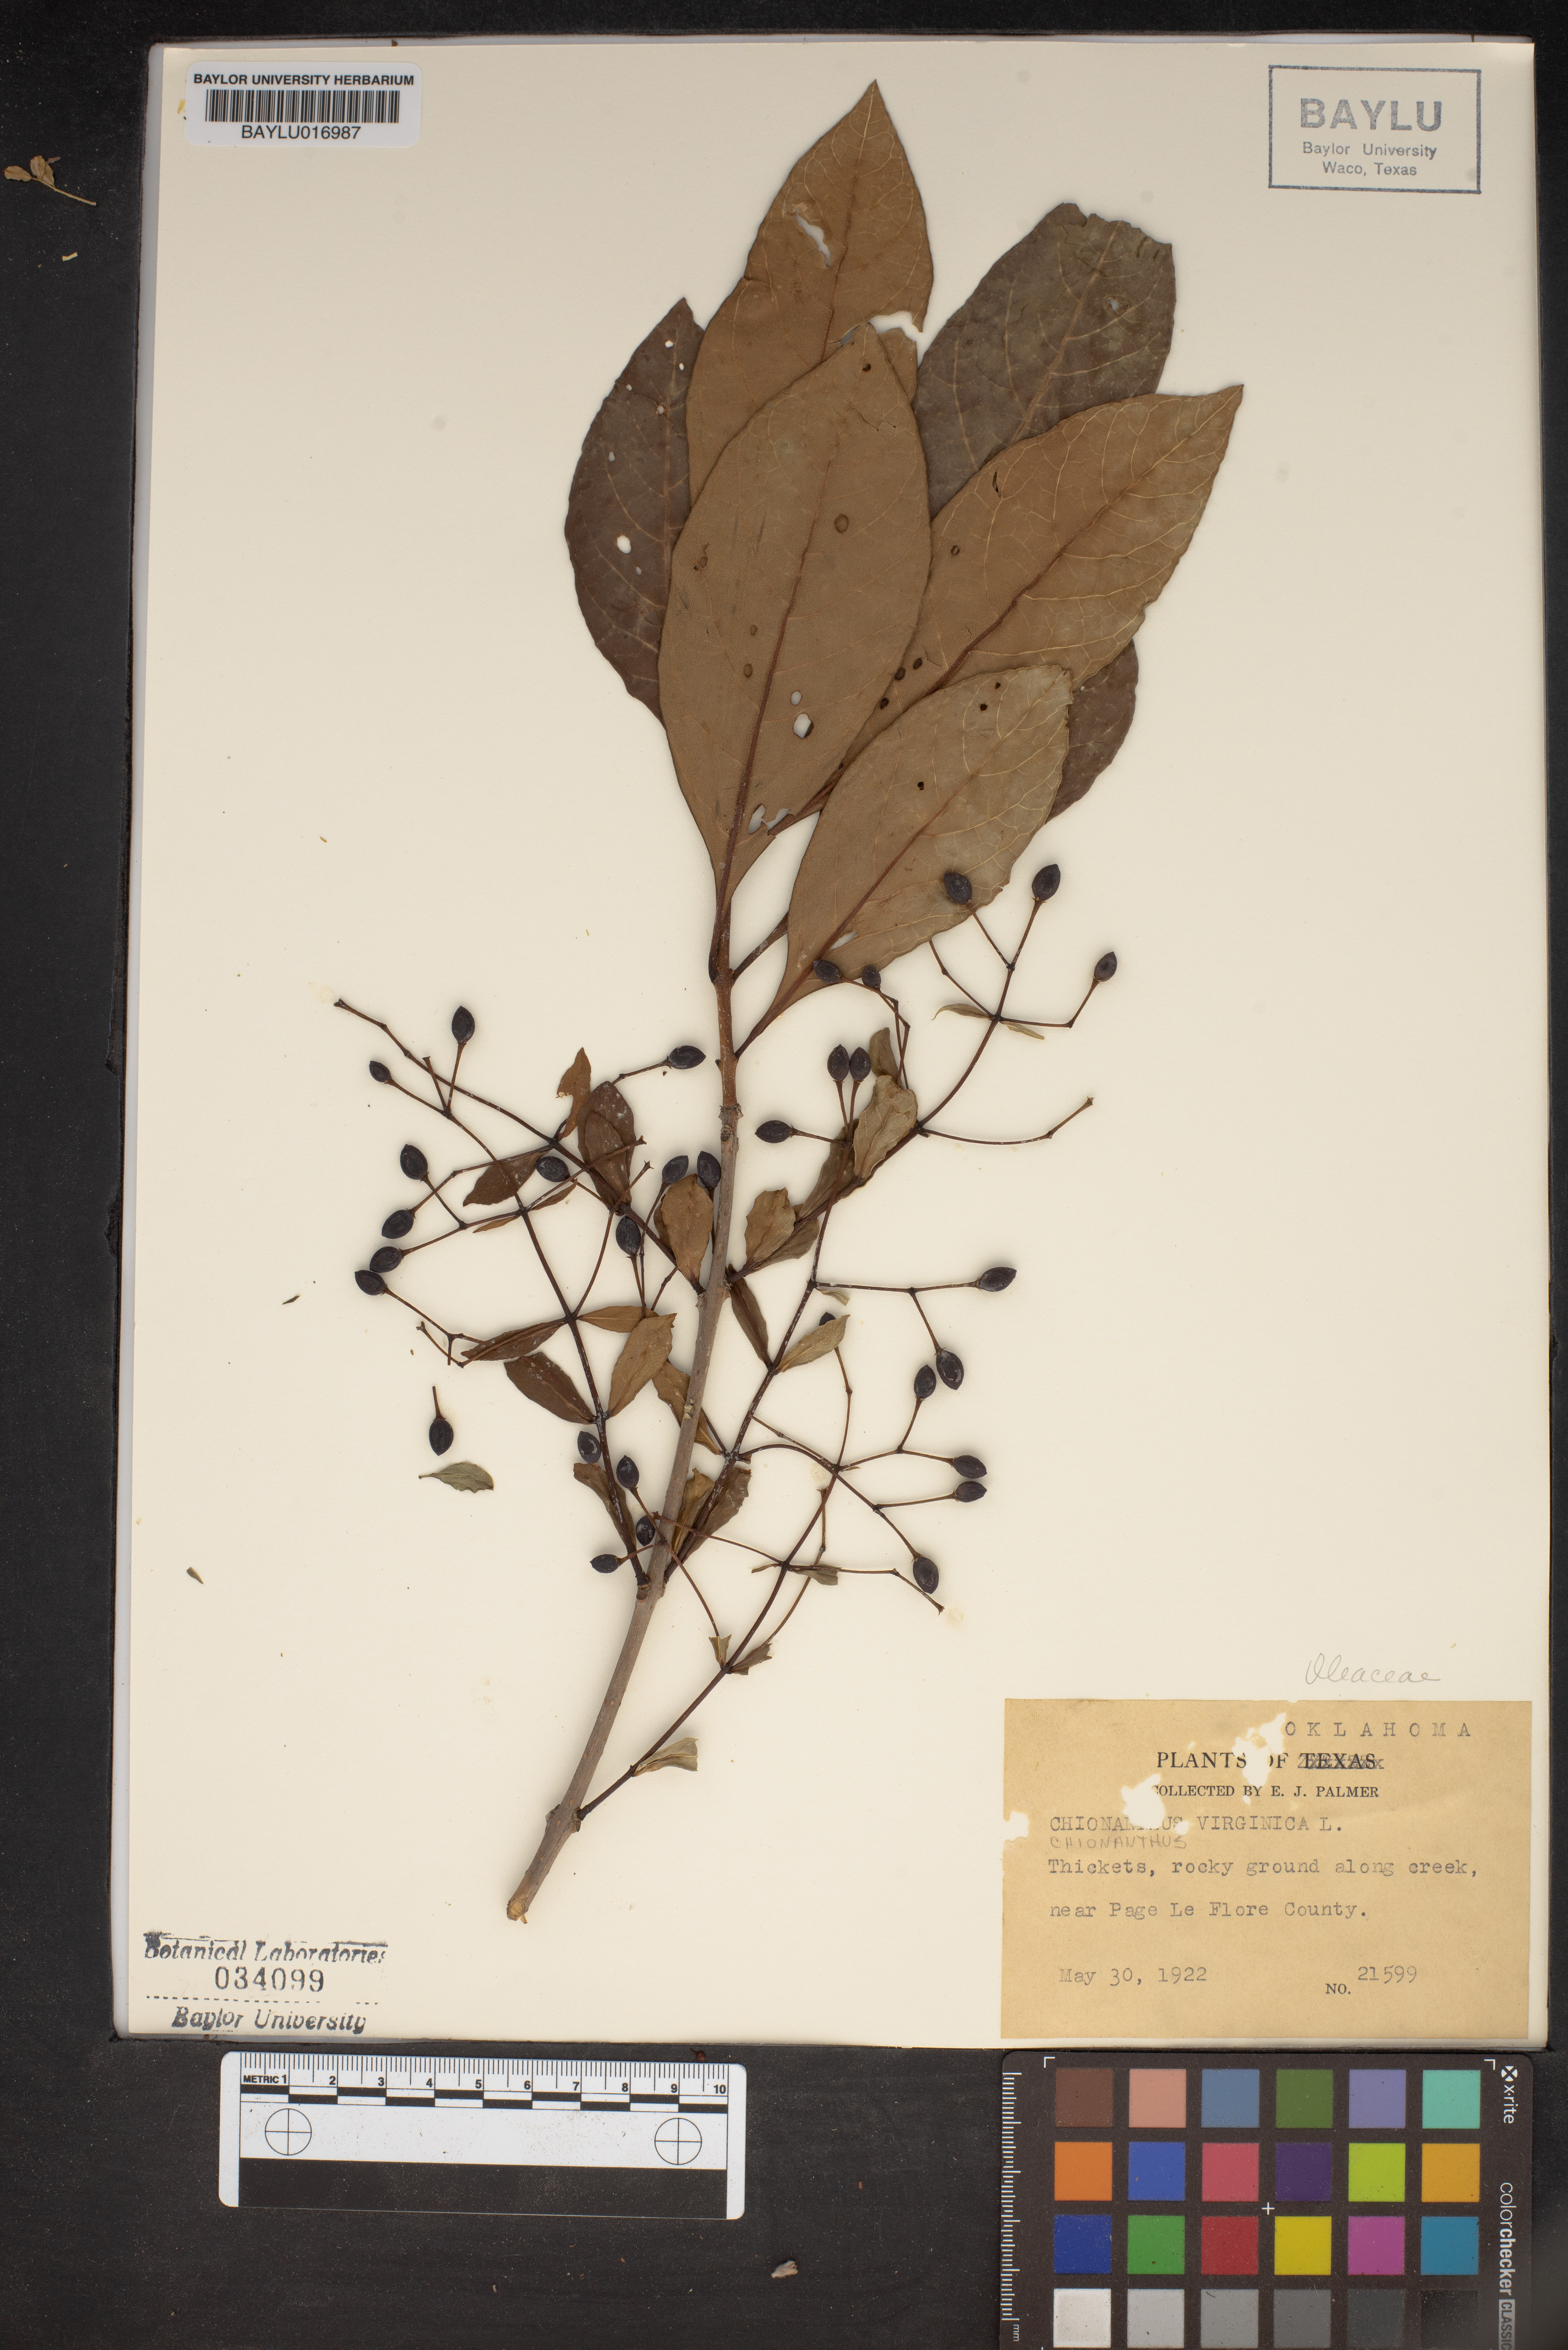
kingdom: Plantae
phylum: Tracheophyta
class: Magnoliopsida
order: Lamiales
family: Oleaceae
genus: Chionanthus
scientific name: Chionanthus virginicus
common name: American fringetree
